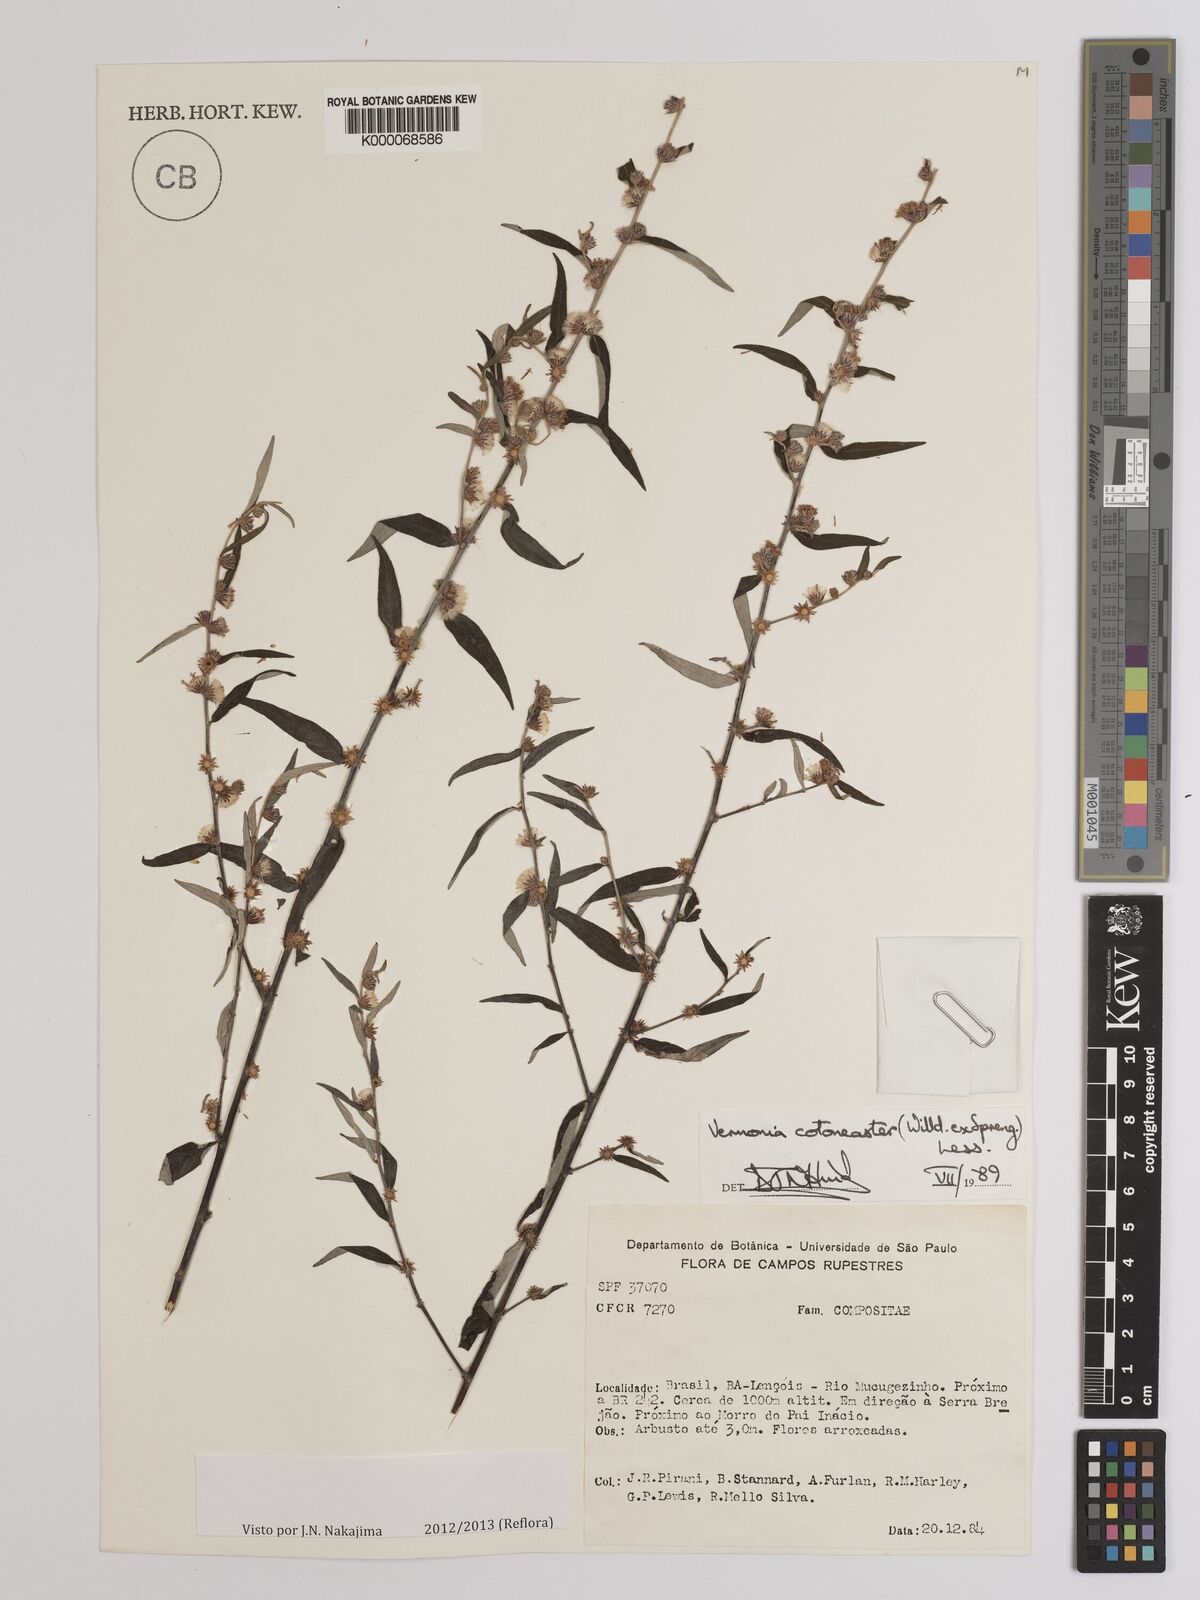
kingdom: Plantae
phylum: Tracheophyta
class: Magnoliopsida
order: Asterales
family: Asteraceae
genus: Lepidaploa
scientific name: Lepidaploa cotoneaster
